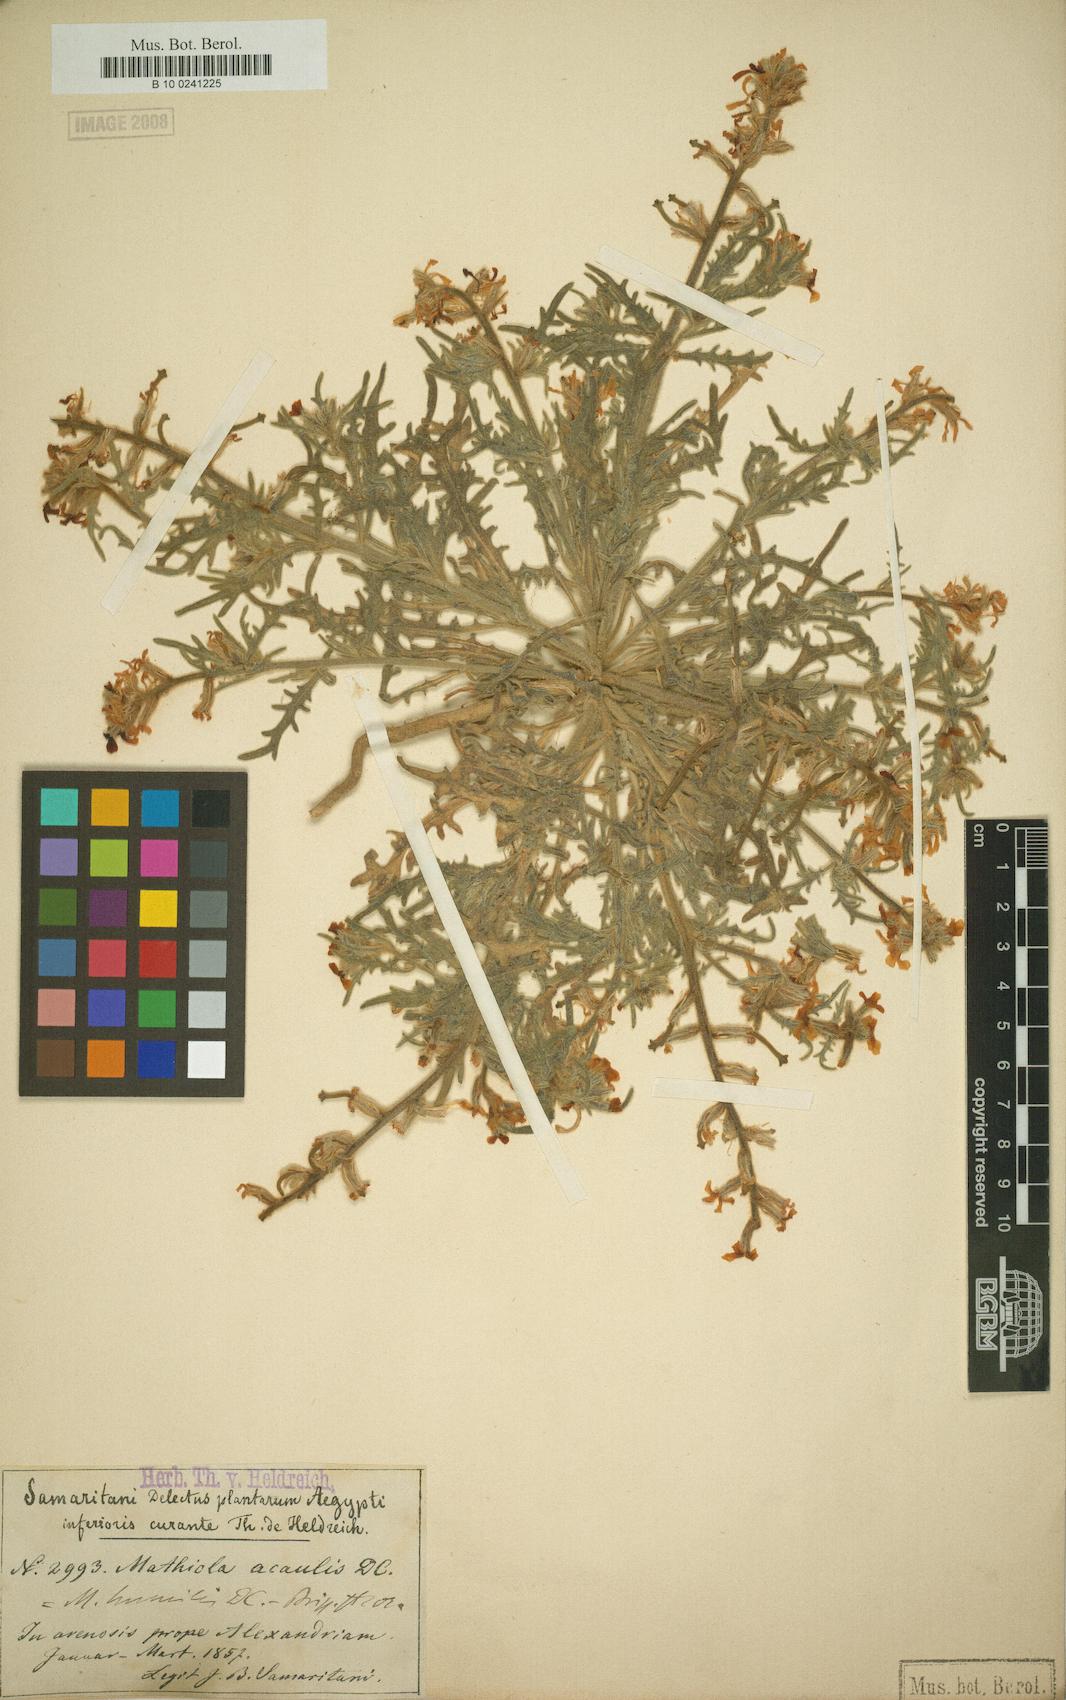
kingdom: Plantae
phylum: Tracheophyta
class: Magnoliopsida
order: Brassicales
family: Brassicaceae
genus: Matthiola
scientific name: Matthiola longipetala
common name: Night-scented stock
